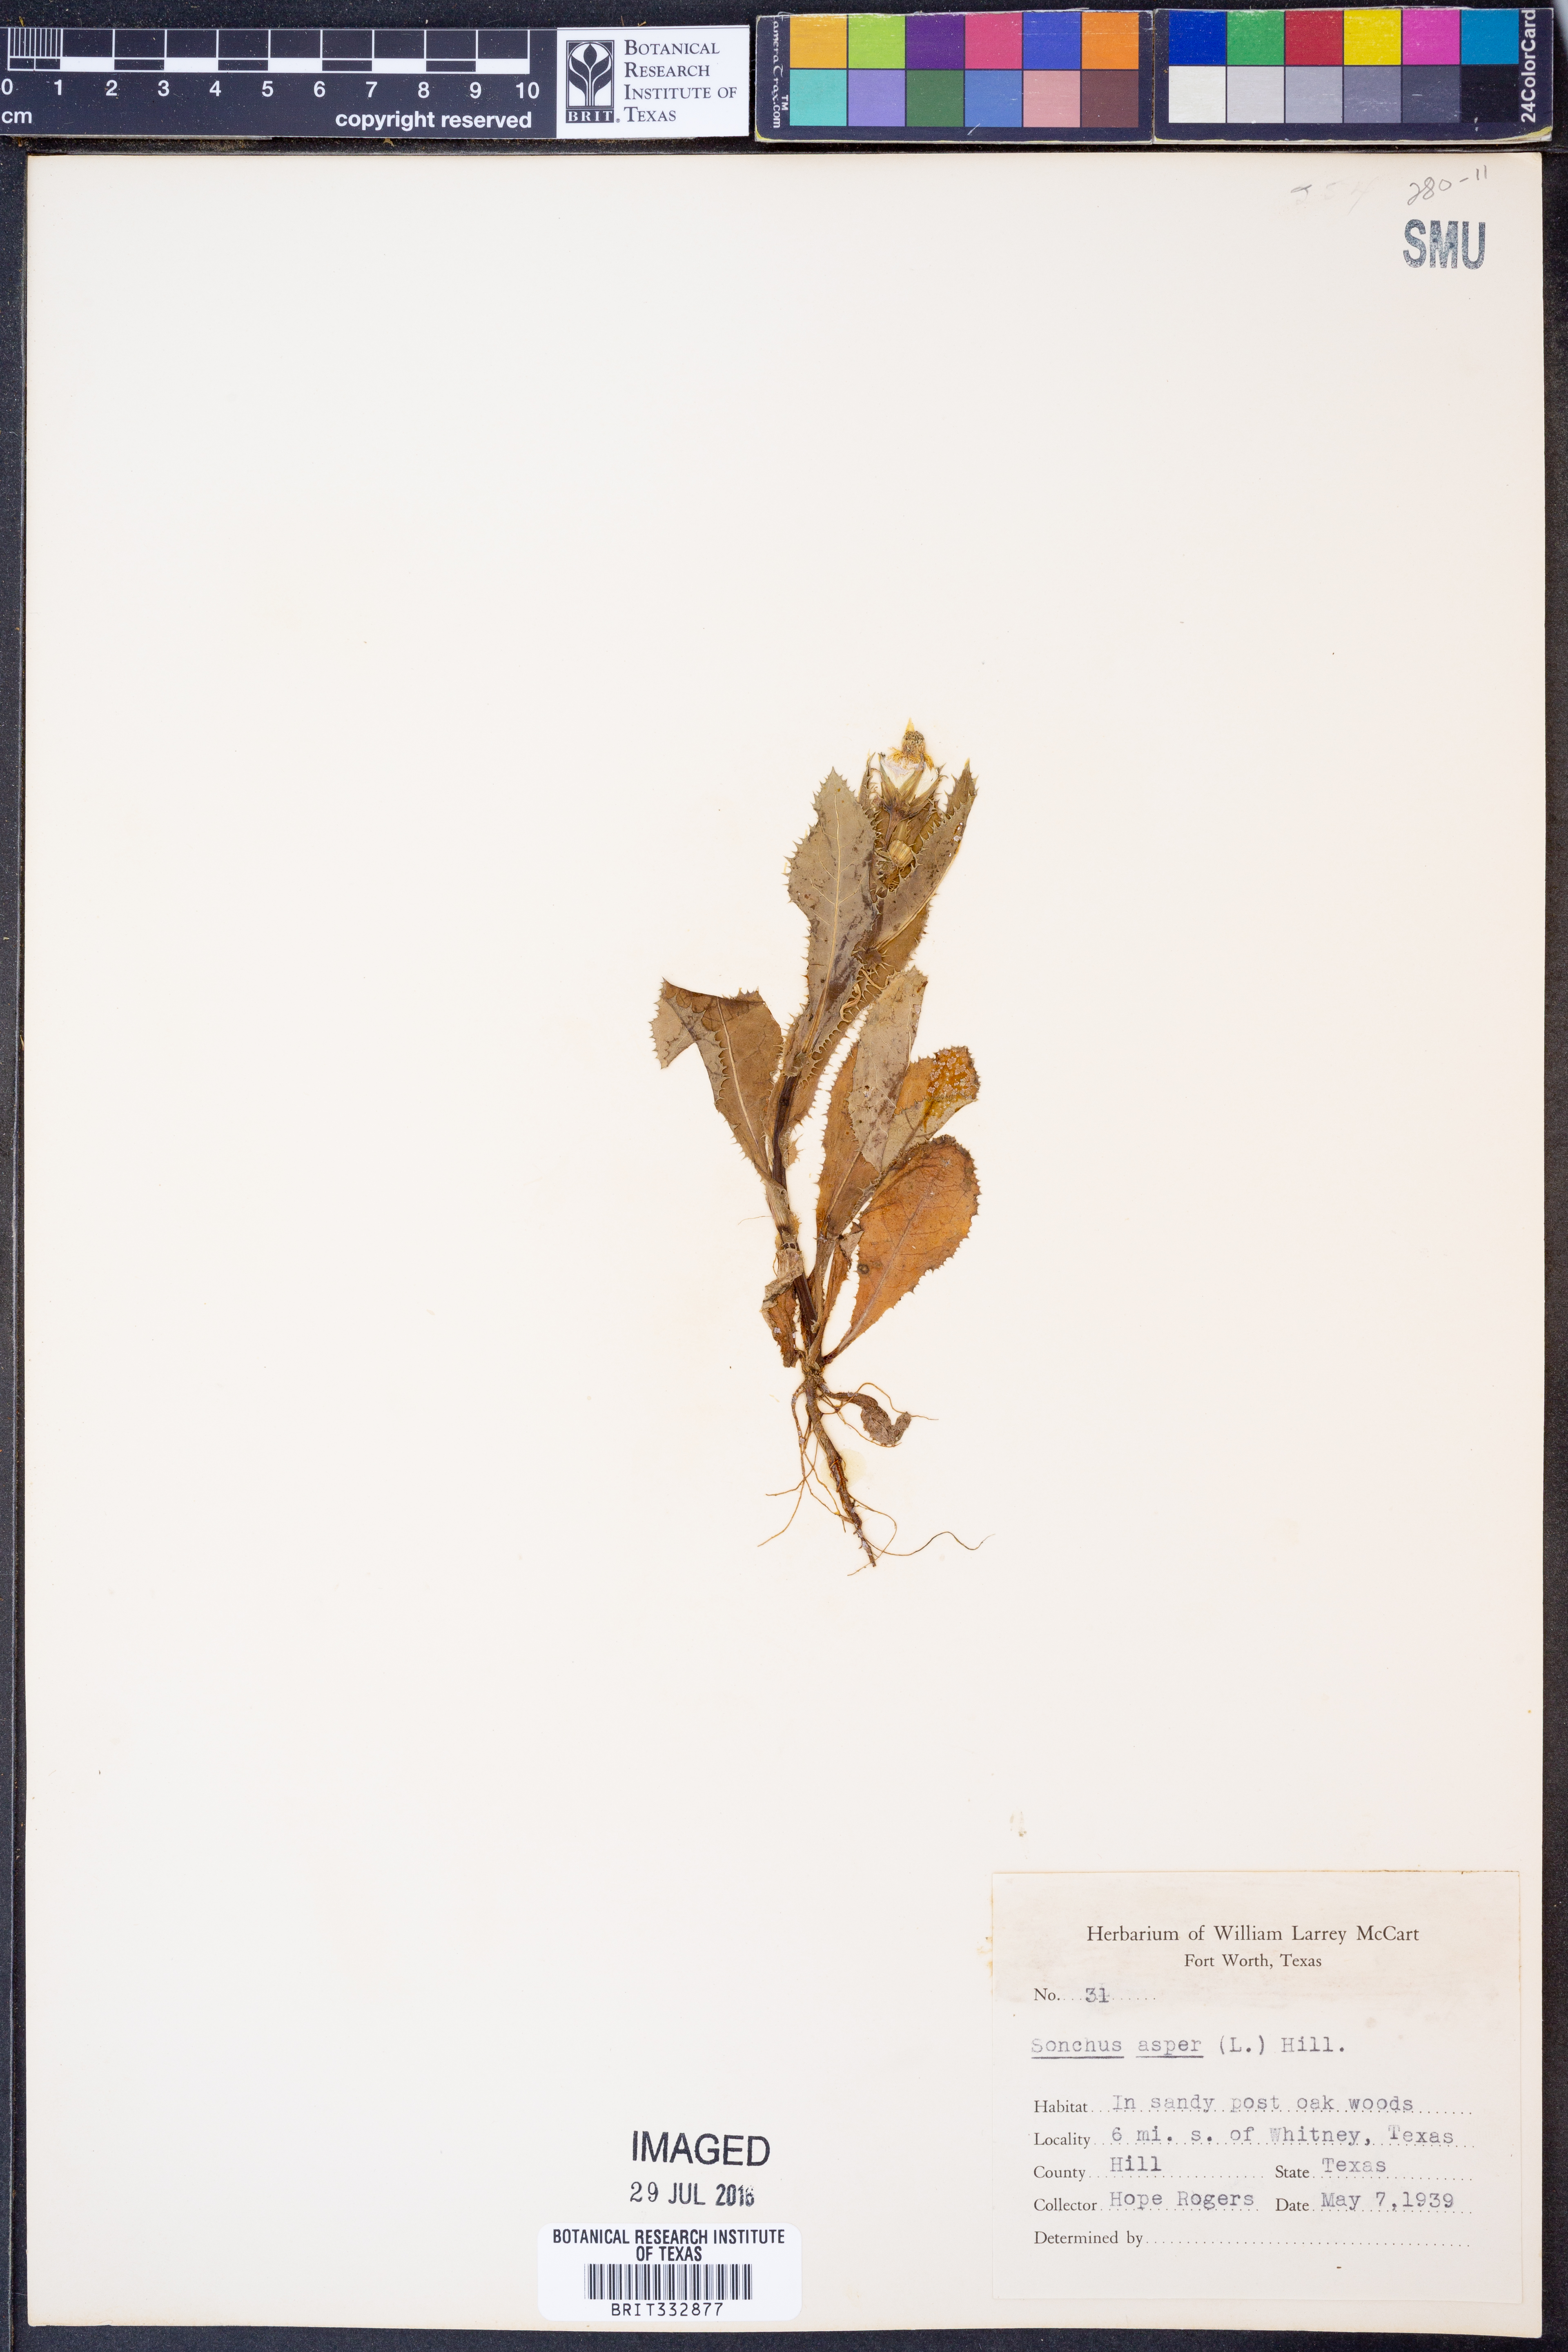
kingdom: Plantae
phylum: Tracheophyta
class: Magnoliopsida
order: Asterales
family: Asteraceae
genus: Sonchus
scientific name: Sonchus asper
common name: Prickly sow-thistle
